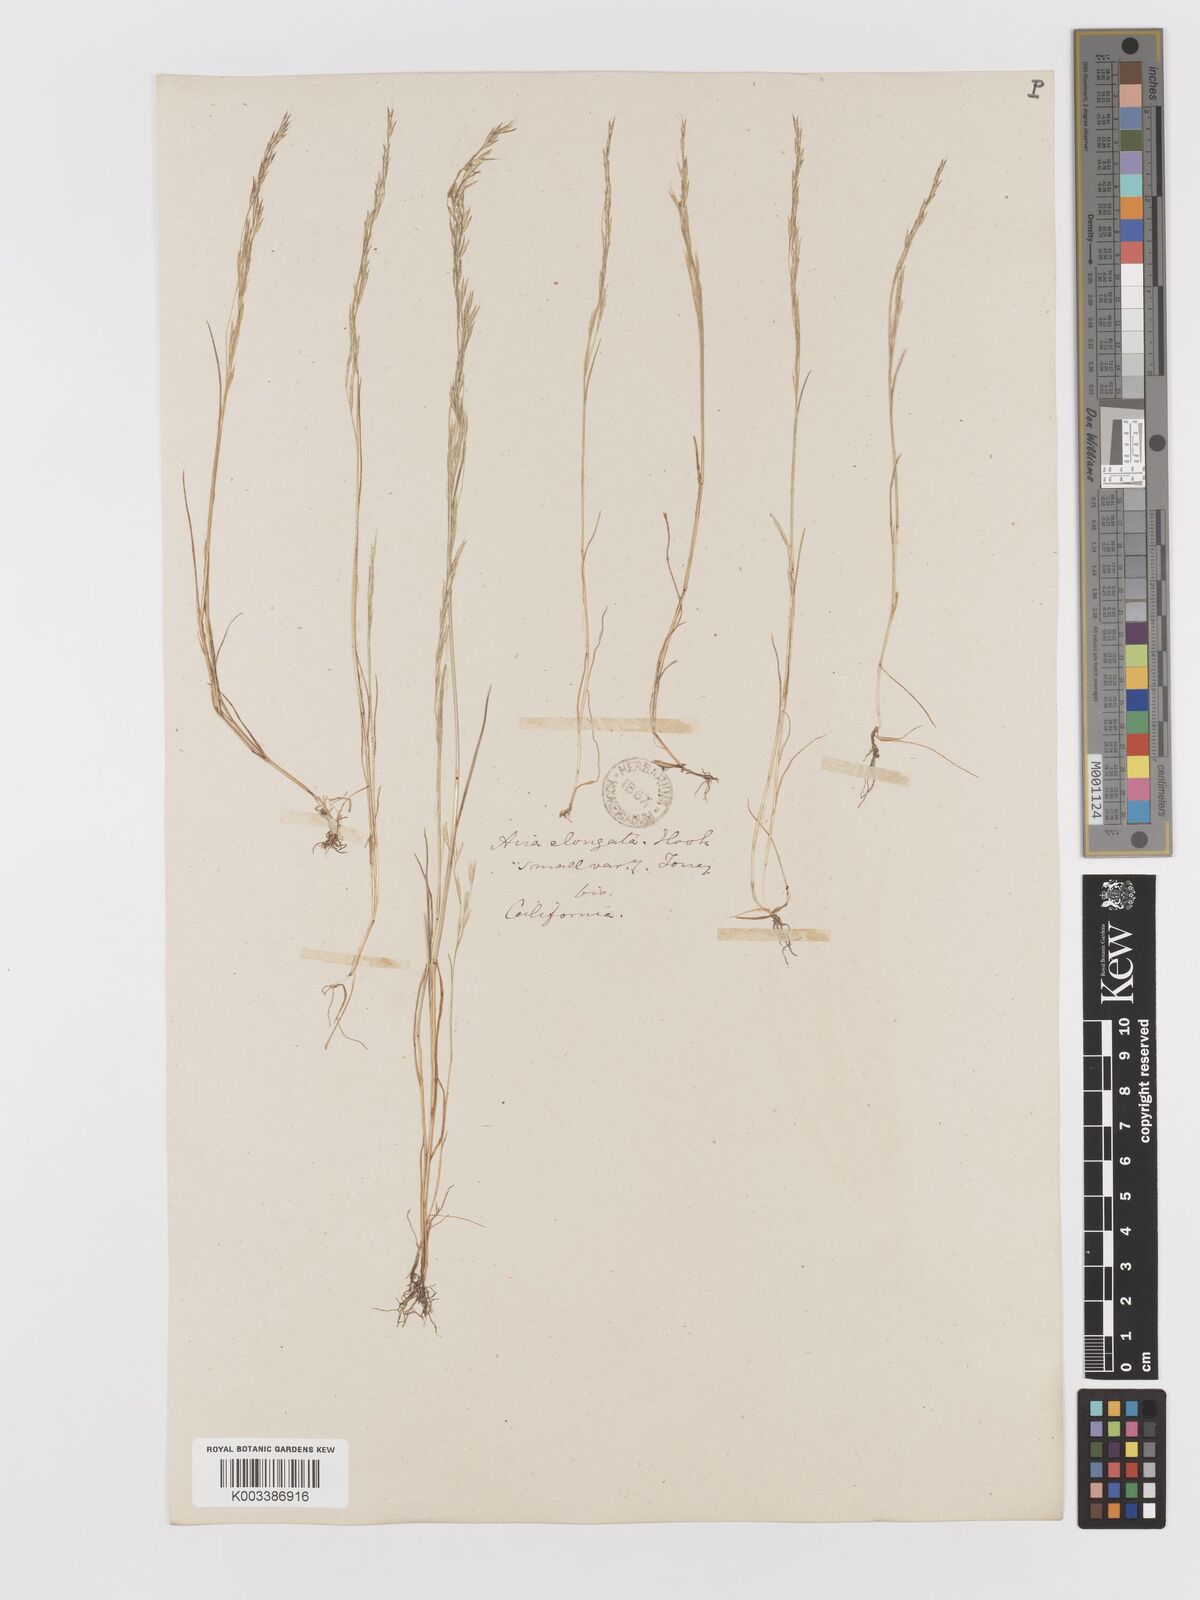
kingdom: Plantae
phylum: Tracheophyta
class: Liliopsida
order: Poales
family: Poaceae
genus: Deschampsia
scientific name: Deschampsia elongata
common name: Slender hairgrass
